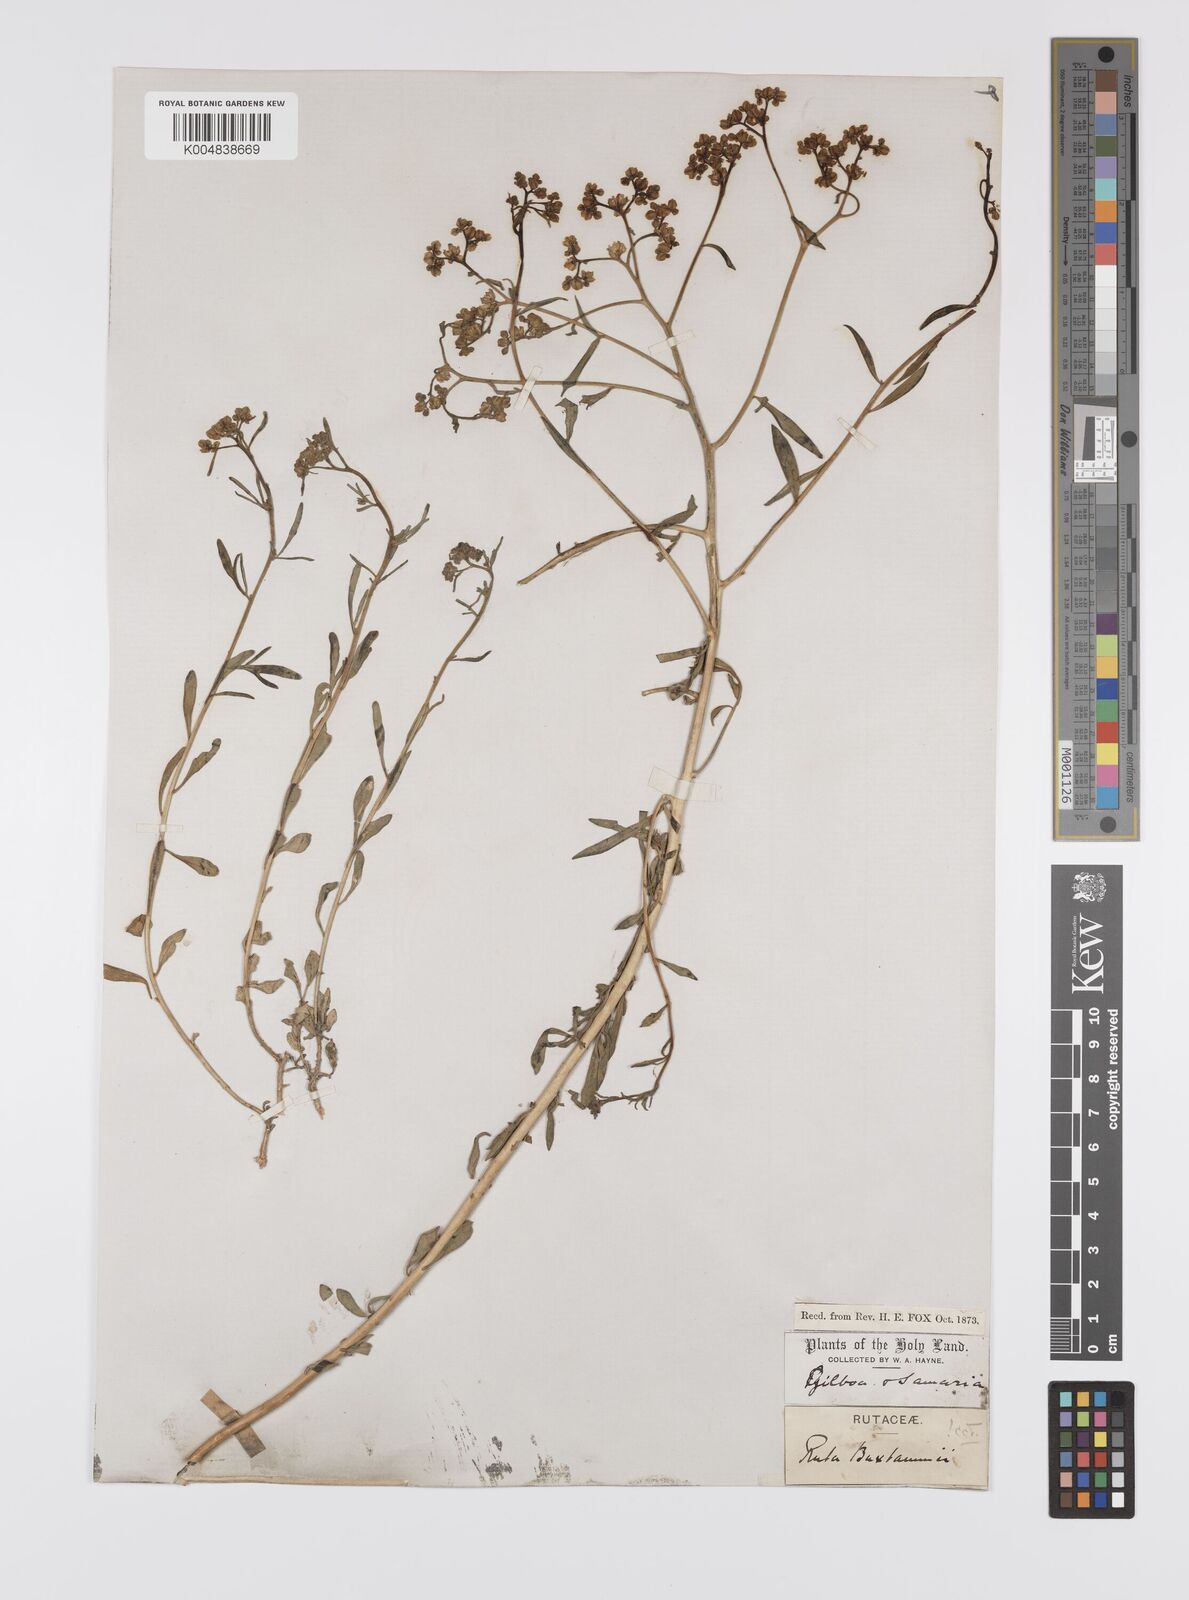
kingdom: Plantae
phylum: Tracheophyta
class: Magnoliopsida
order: Sapindales
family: Rutaceae
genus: Haplophyllum
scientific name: Haplophyllum
